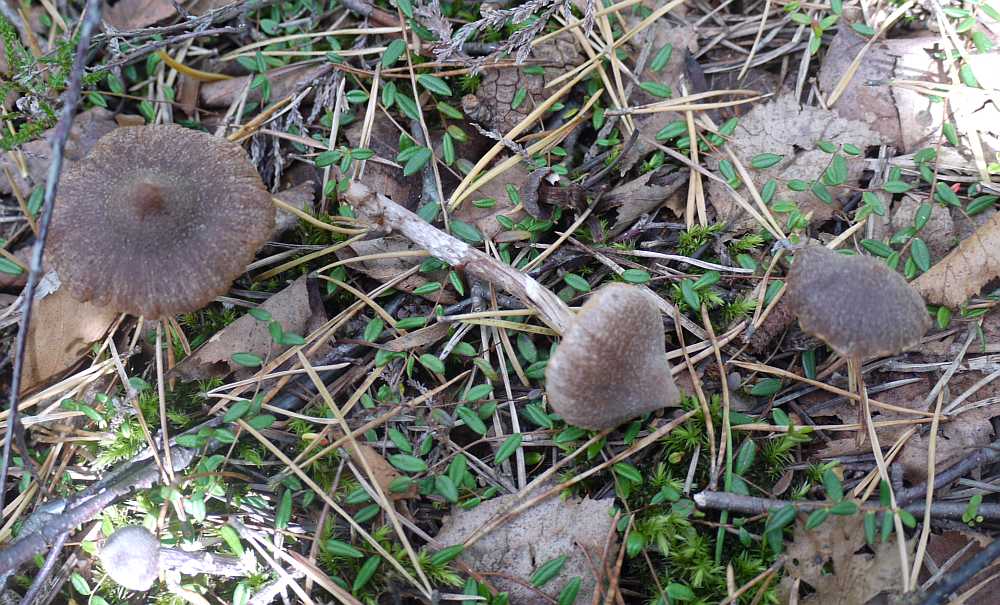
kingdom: Fungi
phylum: Basidiomycota
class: Agaricomycetes
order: Agaricales
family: Cortinariaceae
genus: Cortinarius
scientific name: Cortinarius
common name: pelargonie-slørhat
